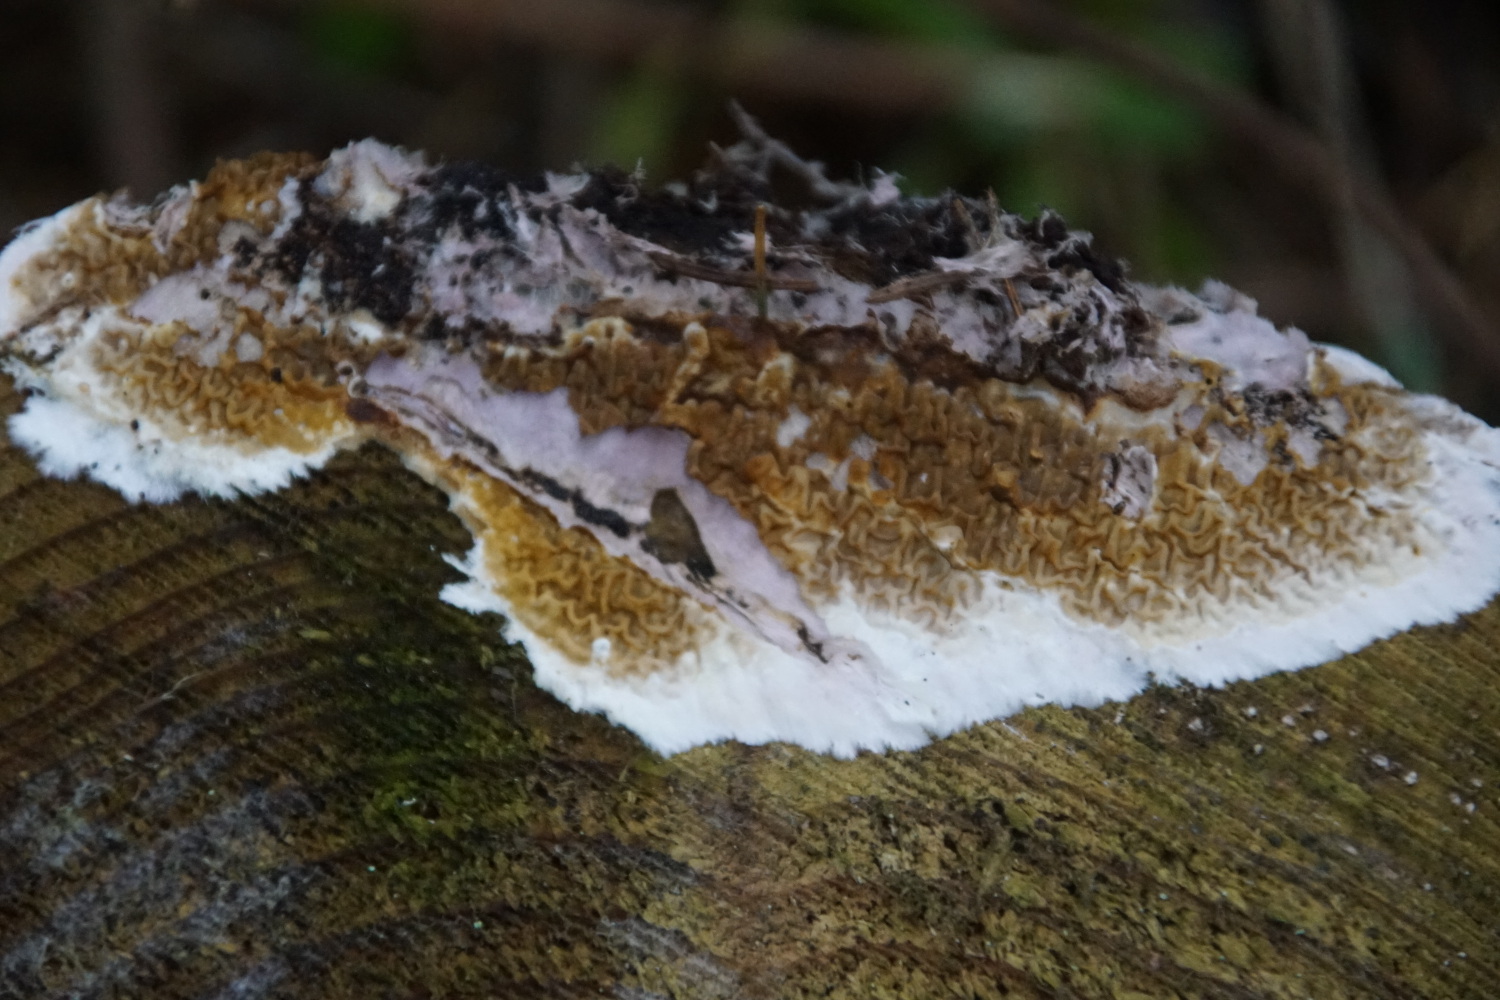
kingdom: Fungi
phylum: Basidiomycota
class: Agaricomycetes
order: Boletales
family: Serpulaceae
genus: Serpula
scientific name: Serpula himantioides
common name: tyndkødet hussvamp
